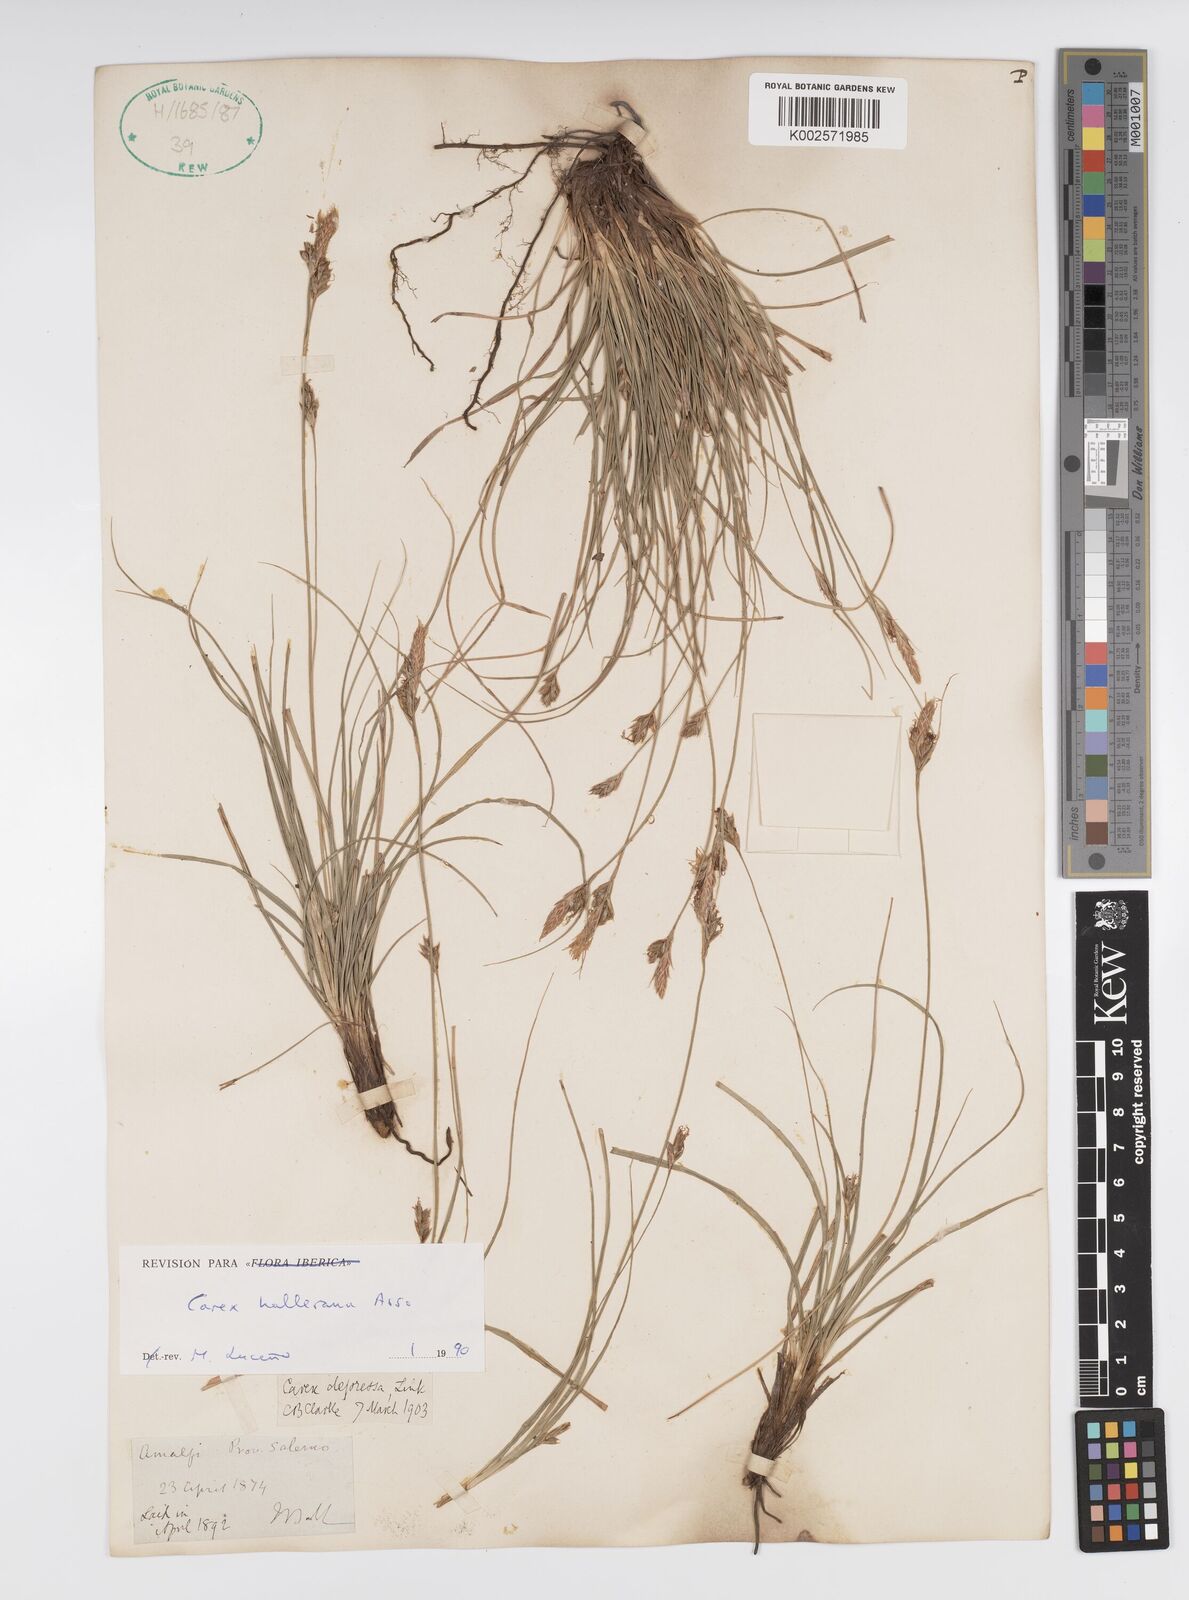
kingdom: Plantae
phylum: Tracheophyta
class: Liliopsida
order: Poales
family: Cyperaceae
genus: Carex
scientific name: Carex halleriana
